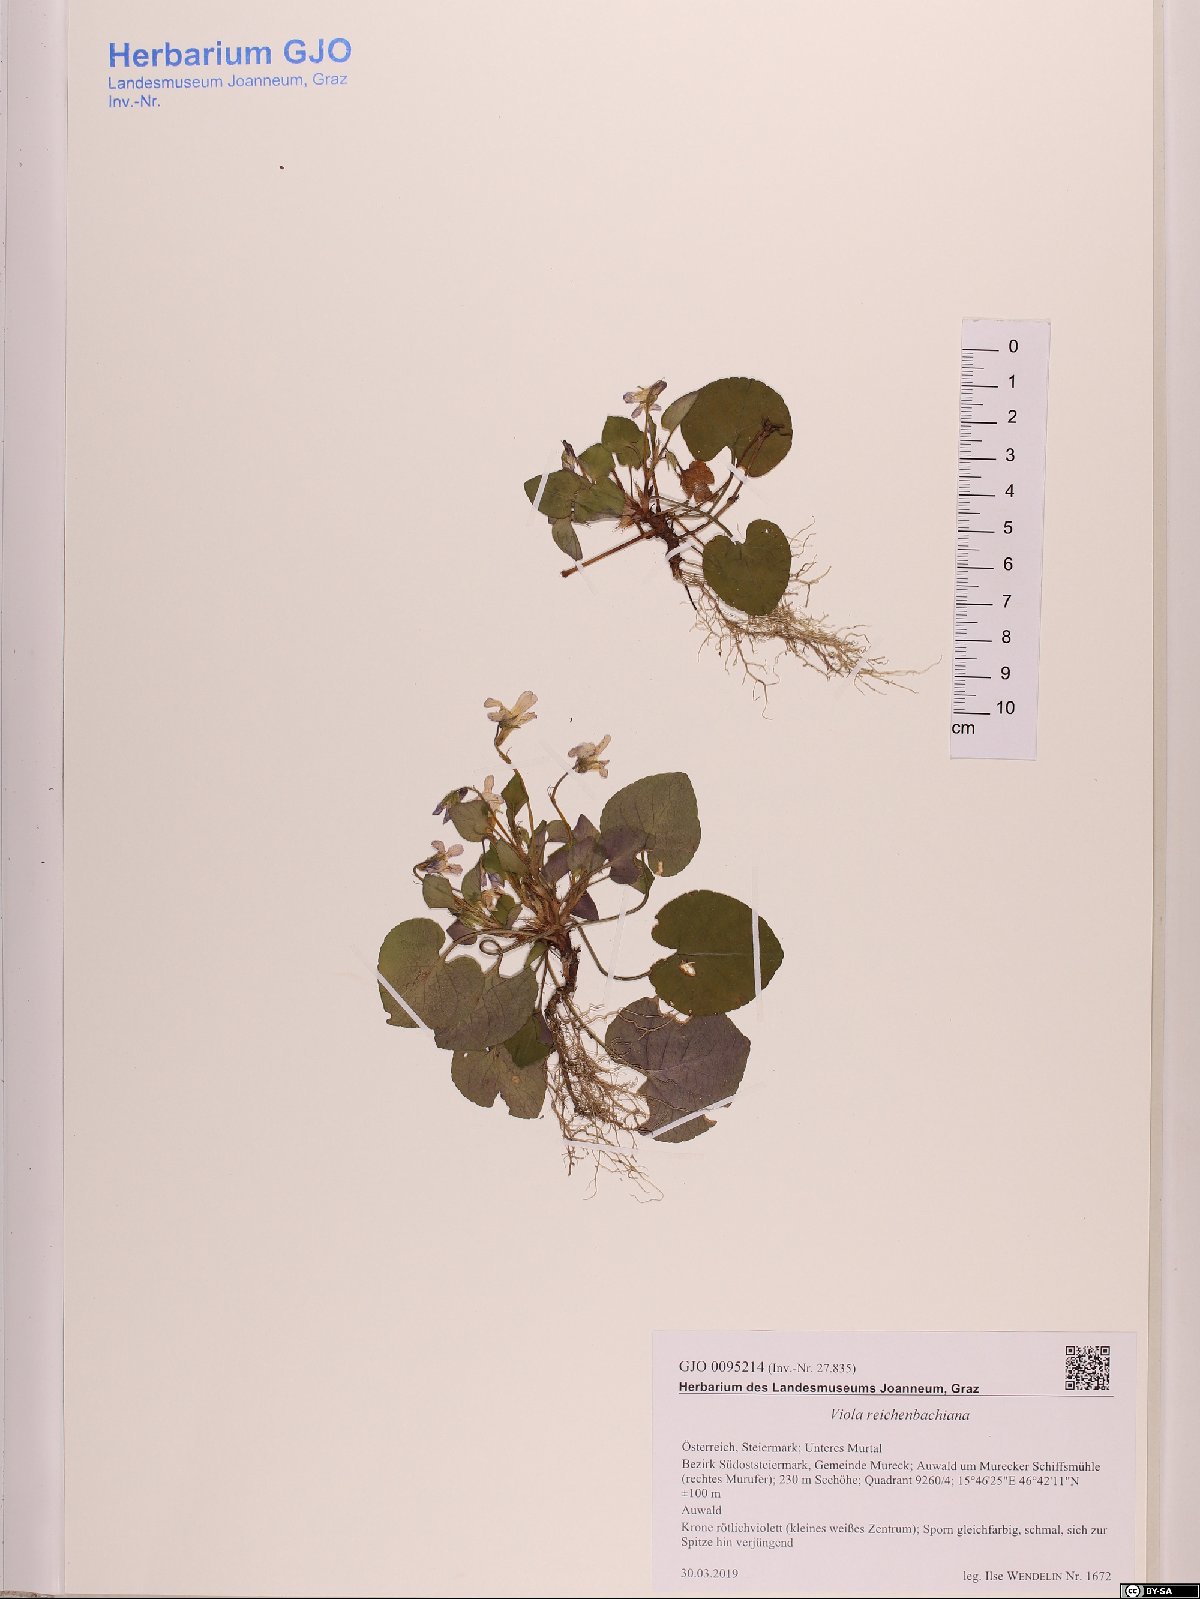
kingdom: Plantae
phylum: Tracheophyta
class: Magnoliopsida
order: Malpighiales
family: Violaceae
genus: Viola
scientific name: Viola reichenbachiana
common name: Early dog-violet
